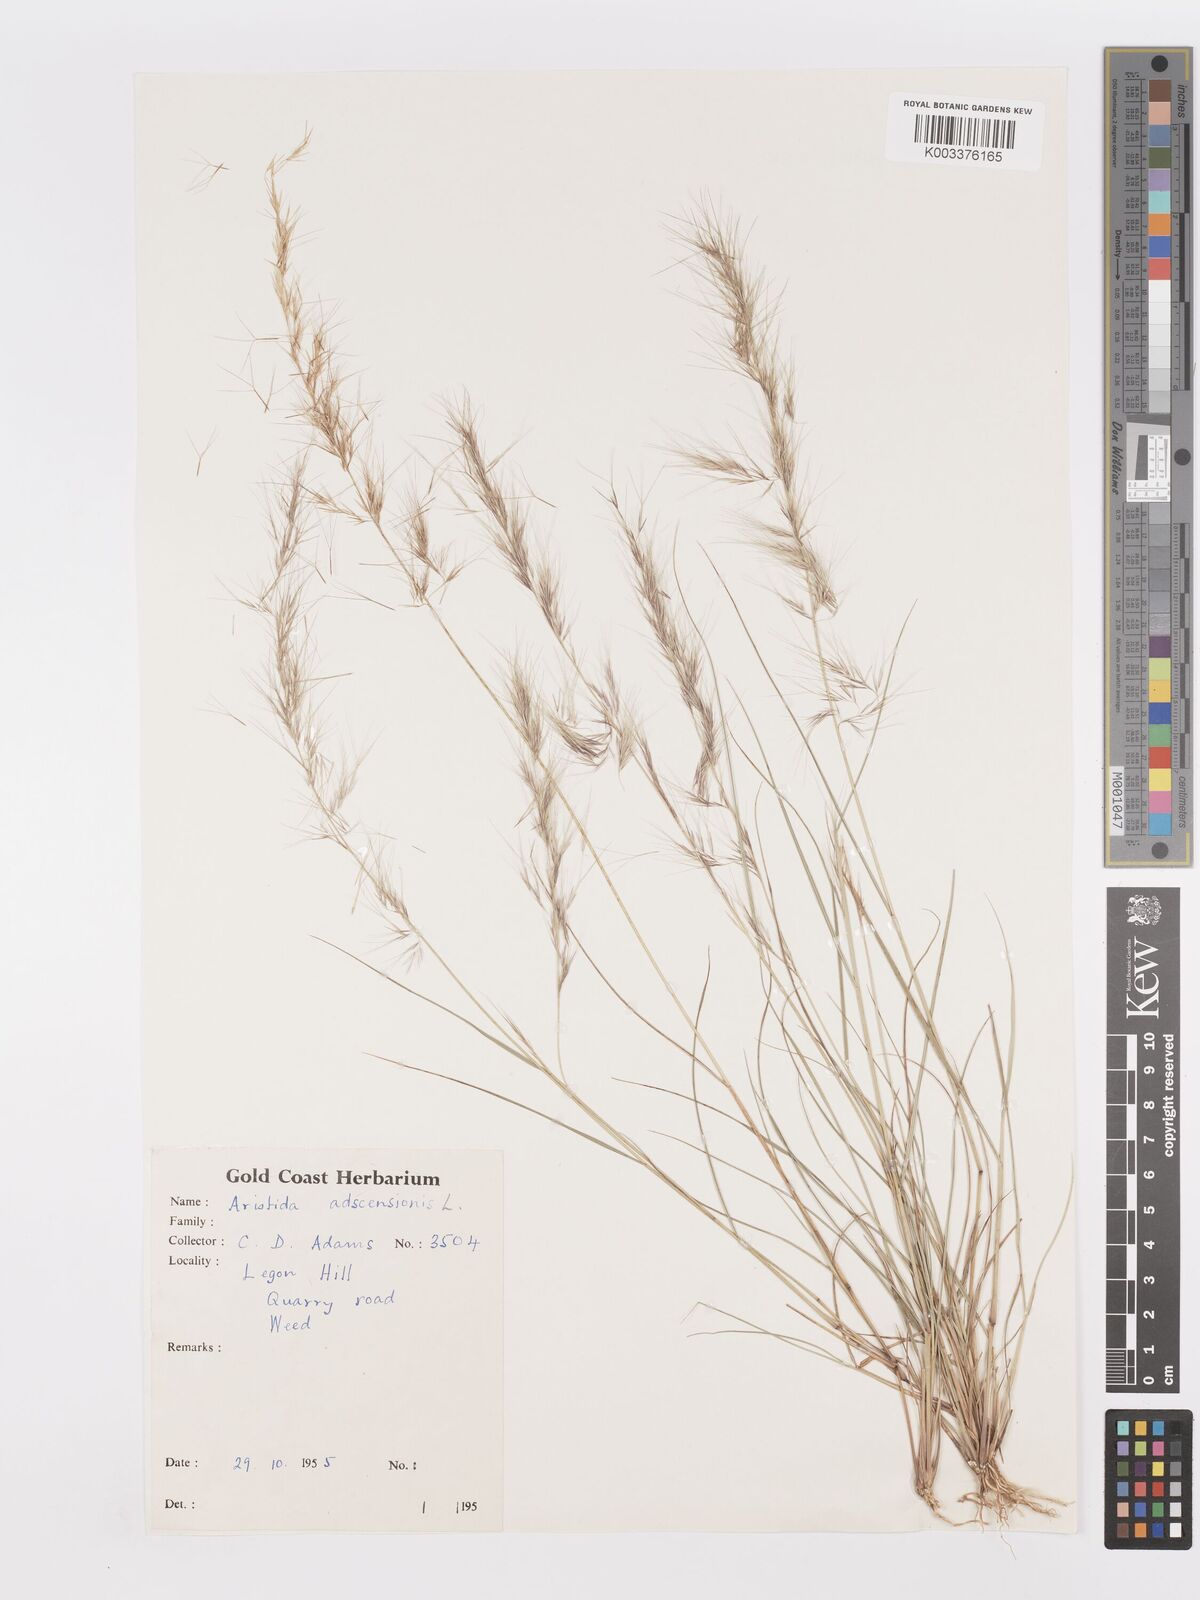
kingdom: Plantae
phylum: Tracheophyta
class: Liliopsida
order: Poales
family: Poaceae
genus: Aristida
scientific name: Aristida adscensionis
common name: Sixweeks threeawn
